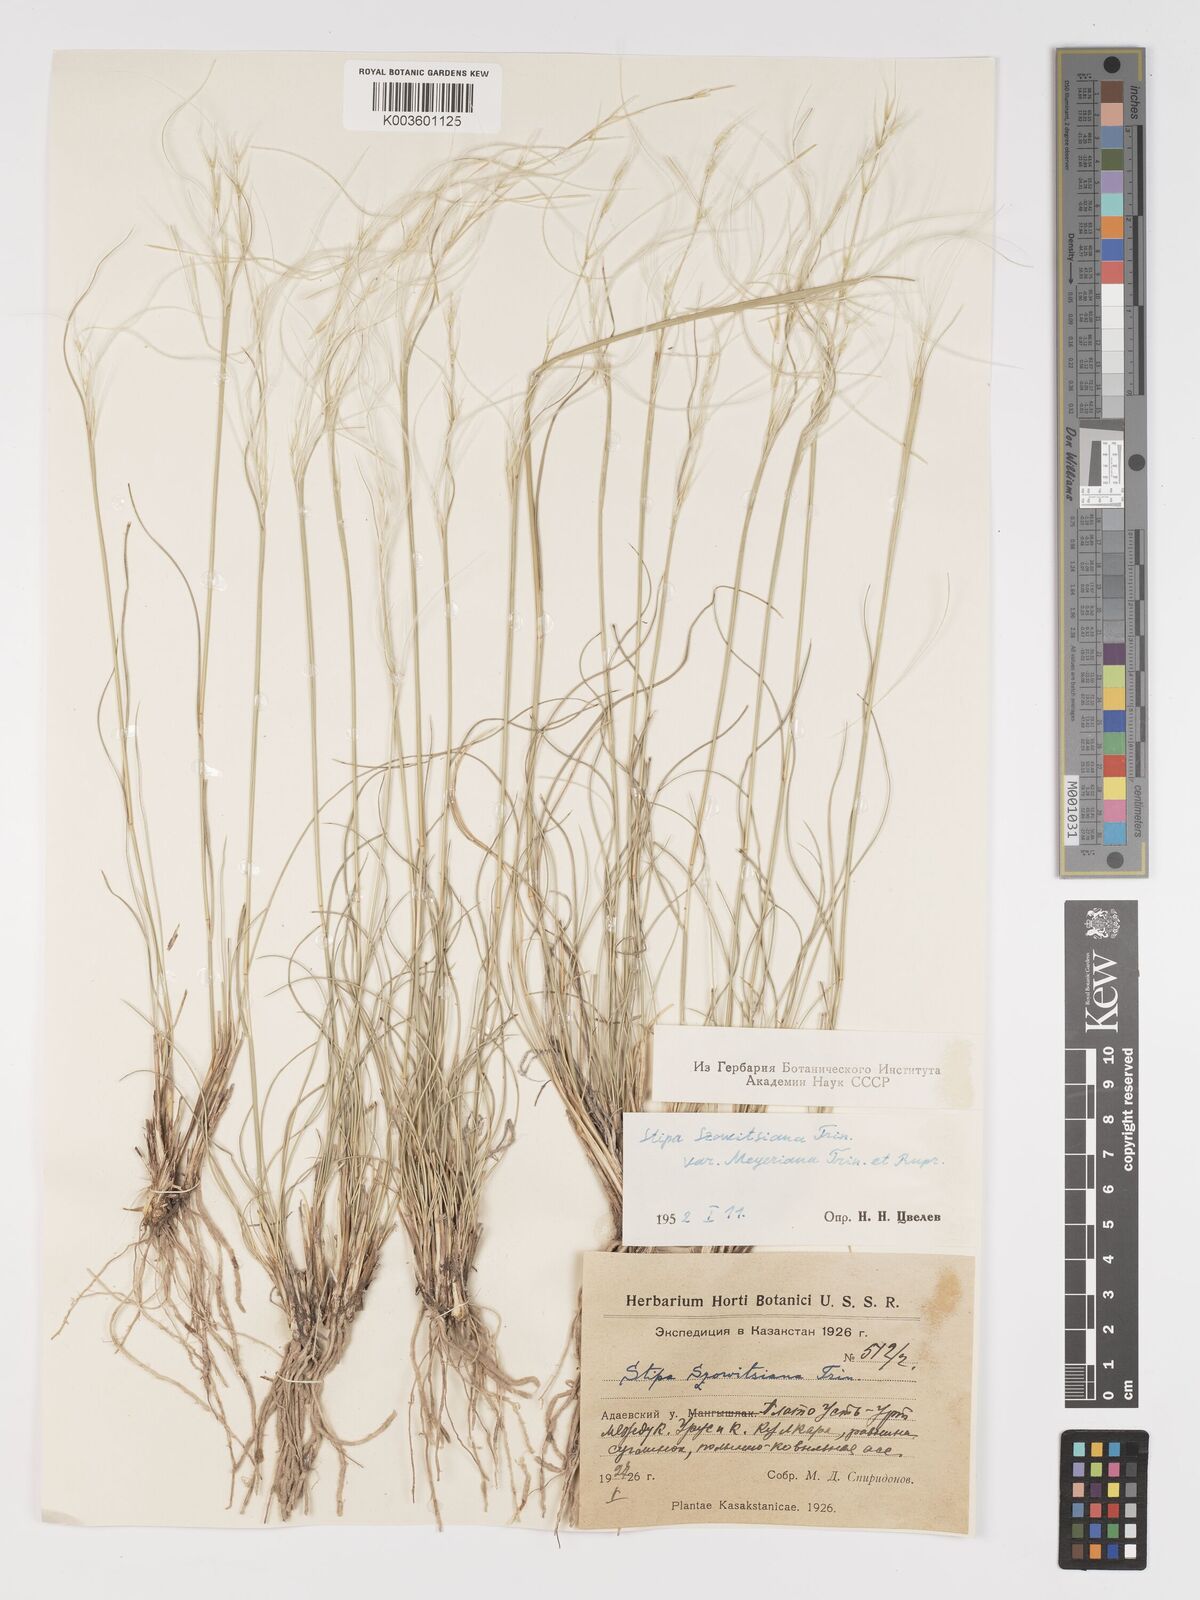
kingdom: Plantae
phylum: Tracheophyta
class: Liliopsida
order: Poales
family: Poaceae
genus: Stipa
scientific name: Stipa arabica
